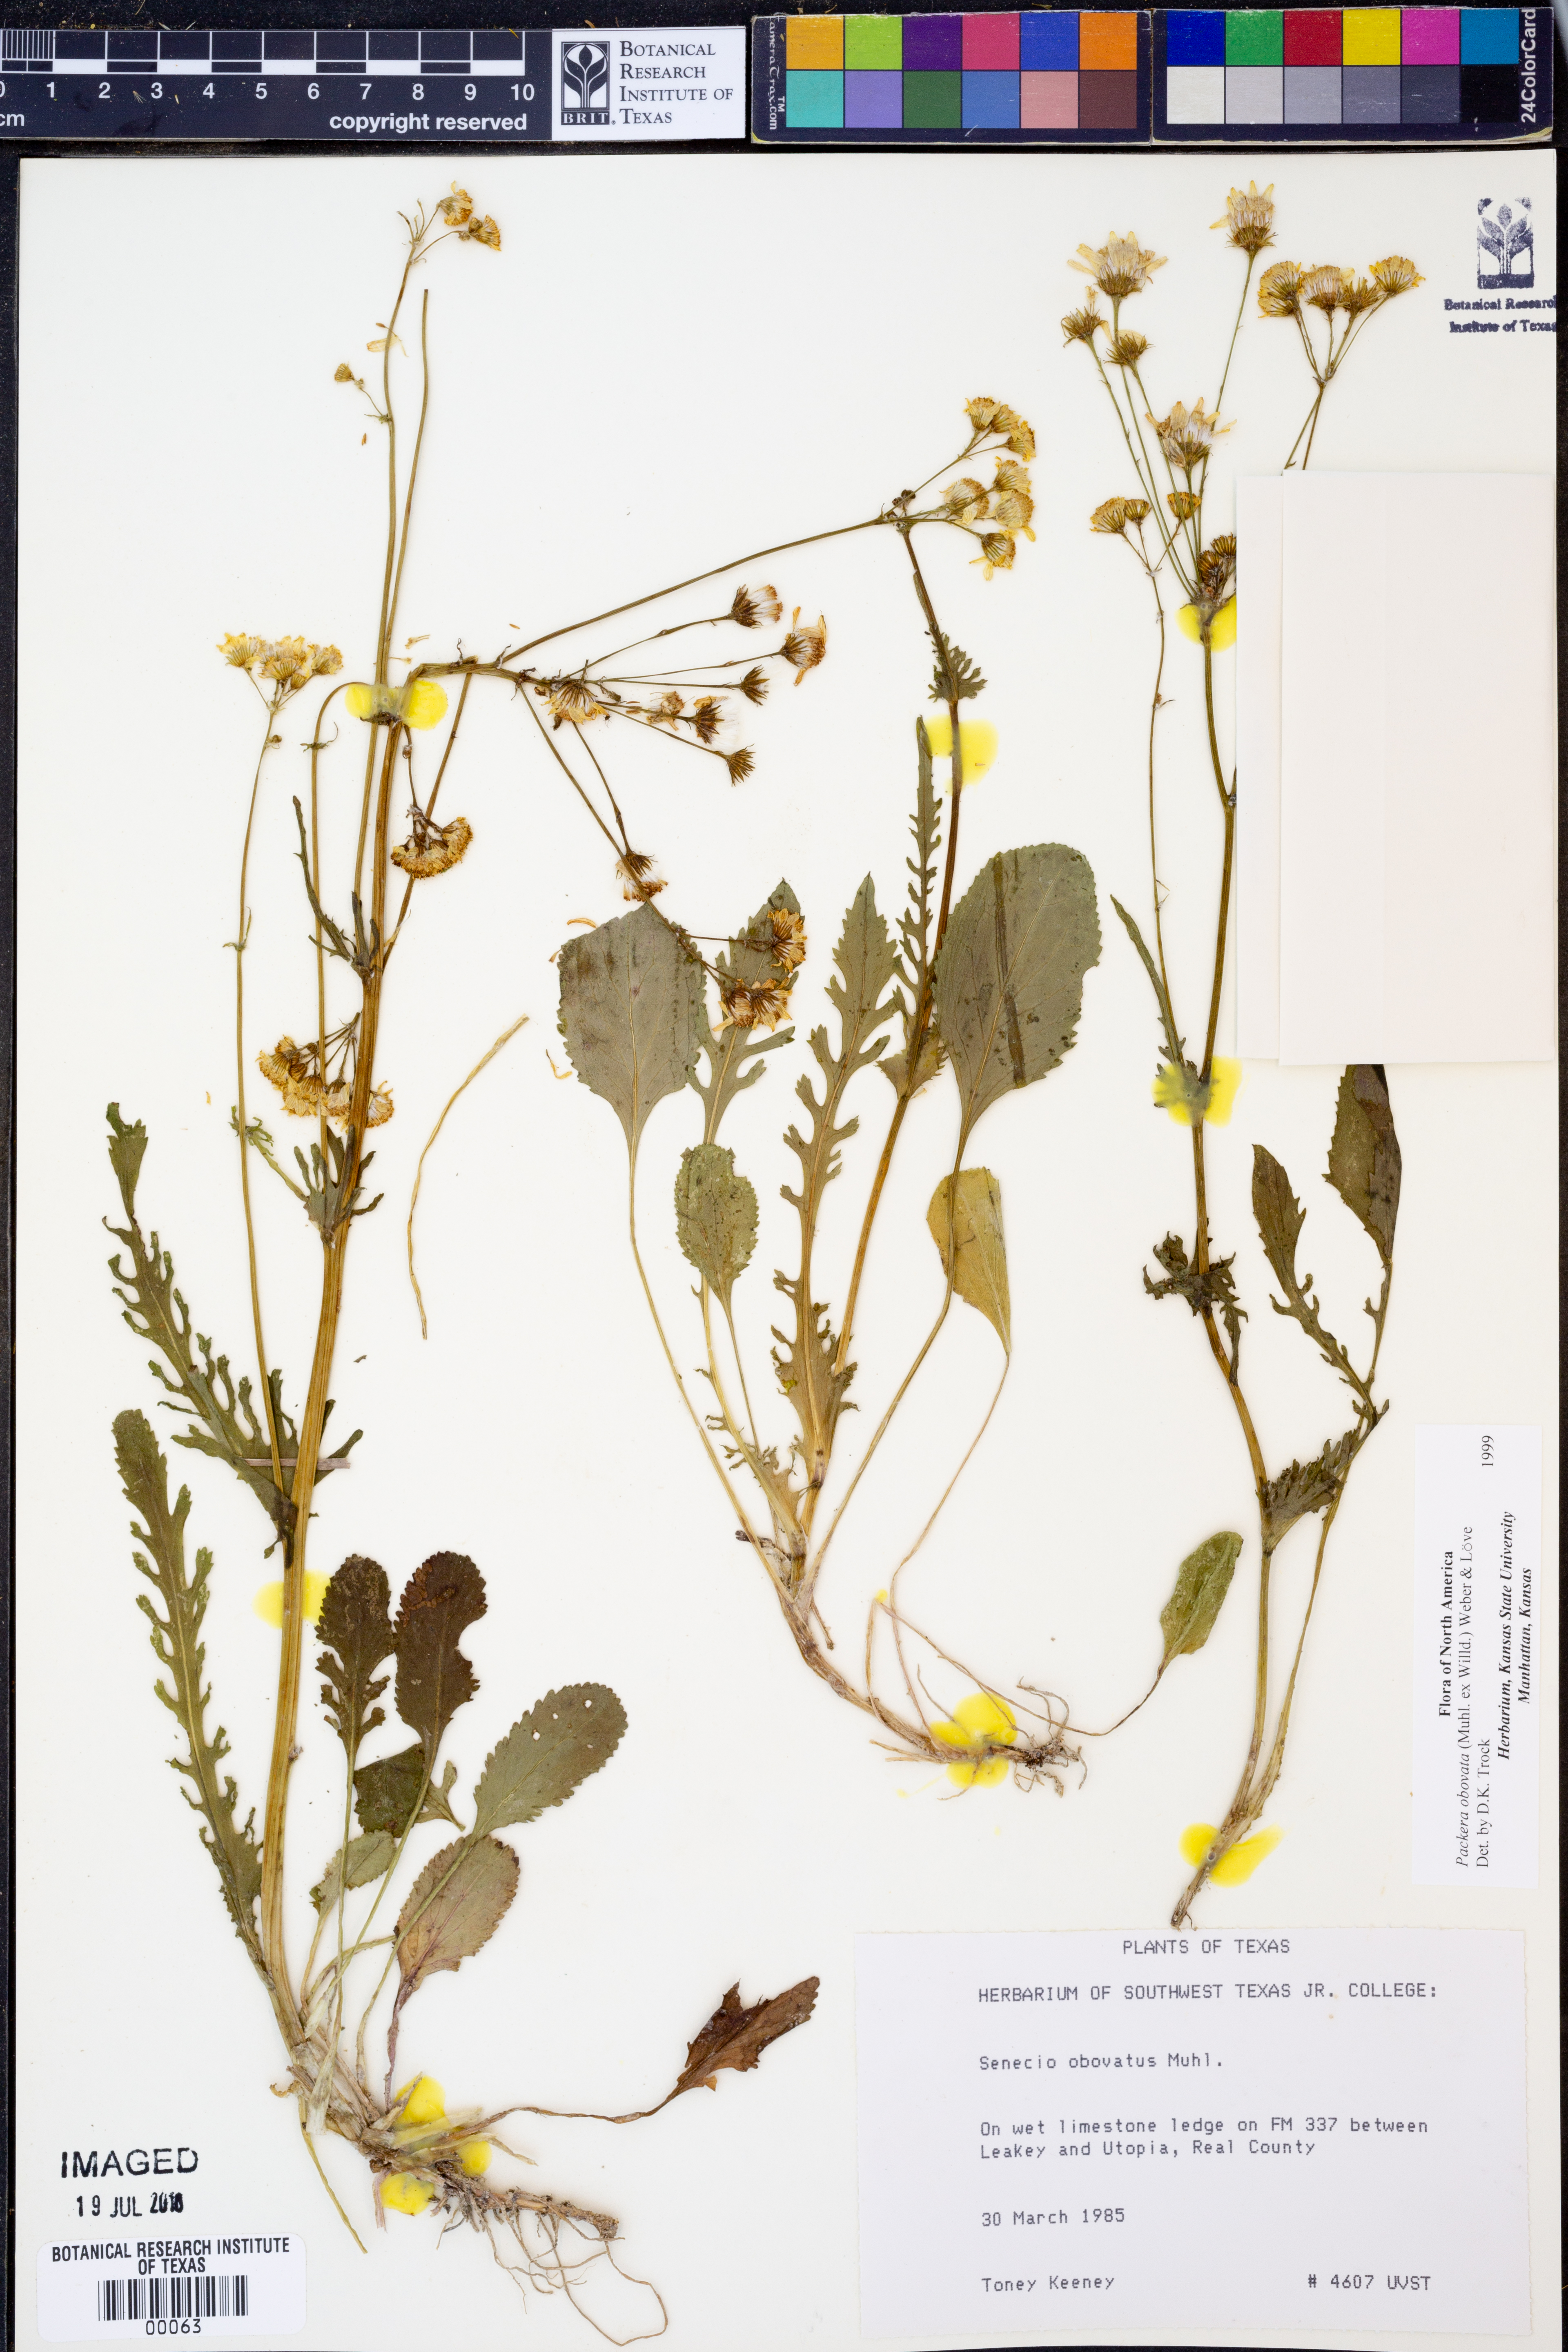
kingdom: Plantae
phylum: Tracheophyta
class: Magnoliopsida
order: Asterales
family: Asteraceae
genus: Packera
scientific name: Packera obovata
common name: Round-leaf ragwort
